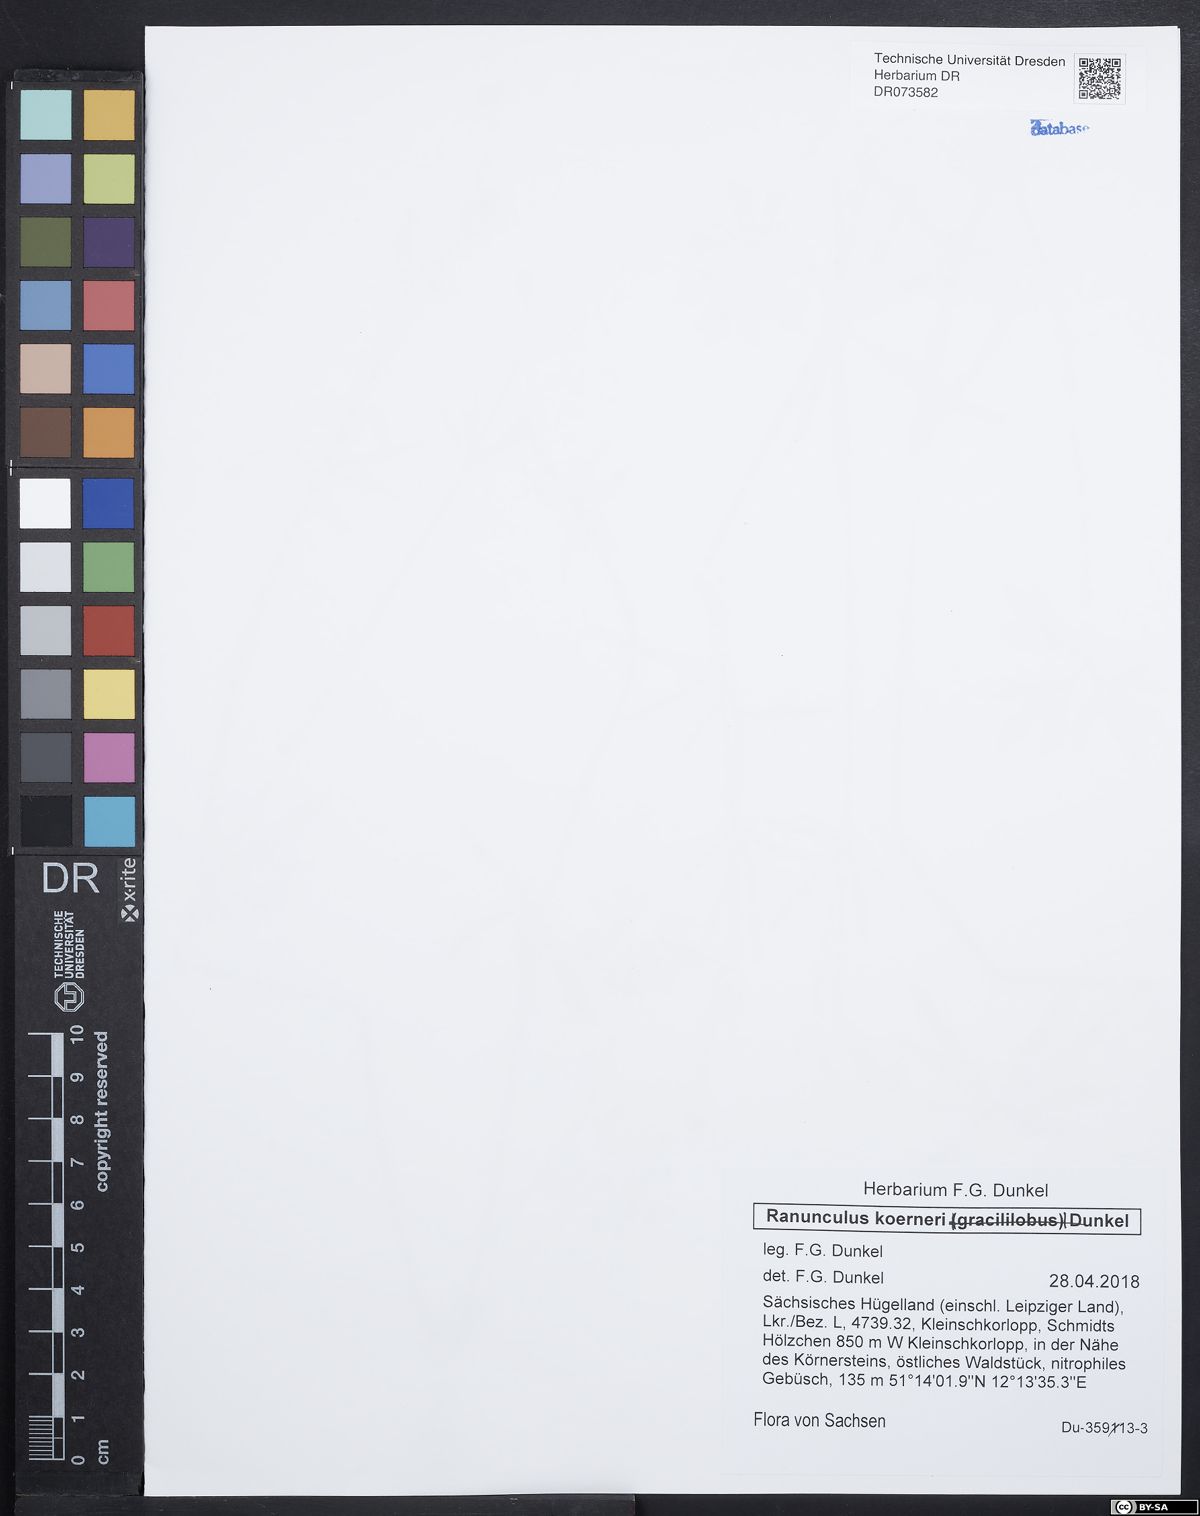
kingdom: Plantae
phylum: Tracheophyta
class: Magnoliopsida
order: Ranunculales
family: Ranunculaceae
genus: Ranunculus
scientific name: Ranunculus koerneri
